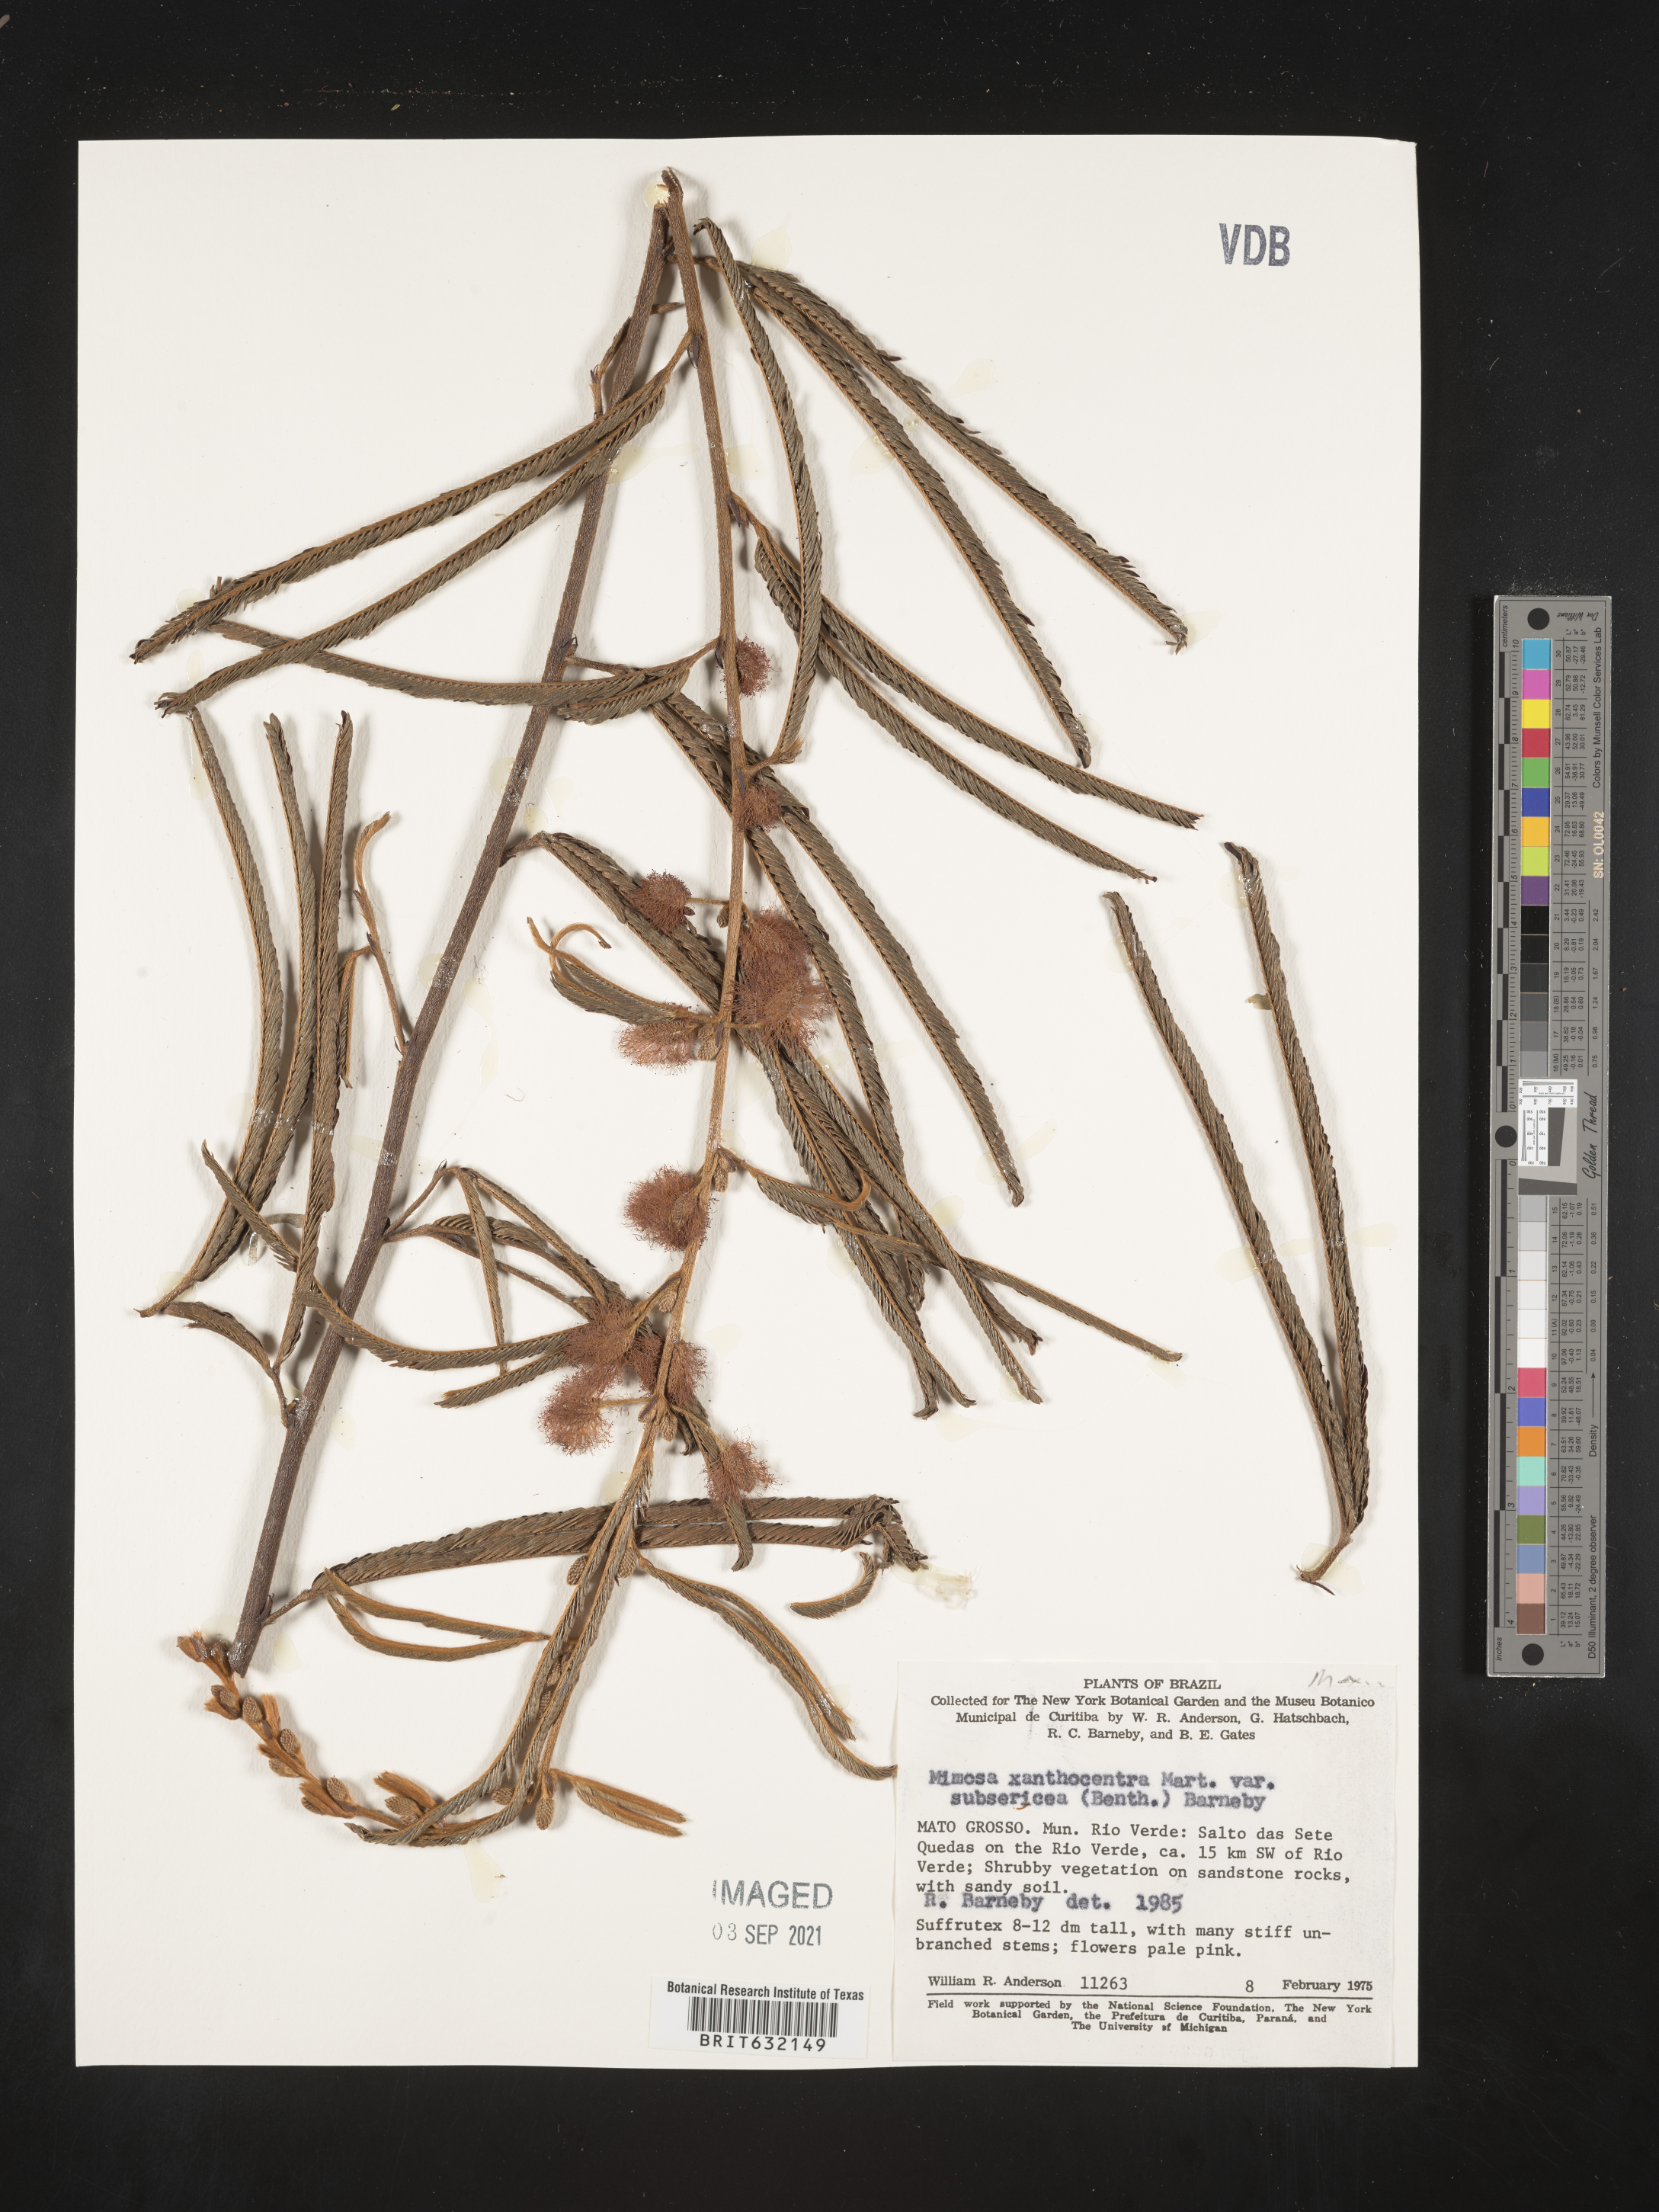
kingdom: Plantae
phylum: Tracheophyta
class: Magnoliopsida
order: Fabales
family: Fabaceae
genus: Mimosa
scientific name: Mimosa
